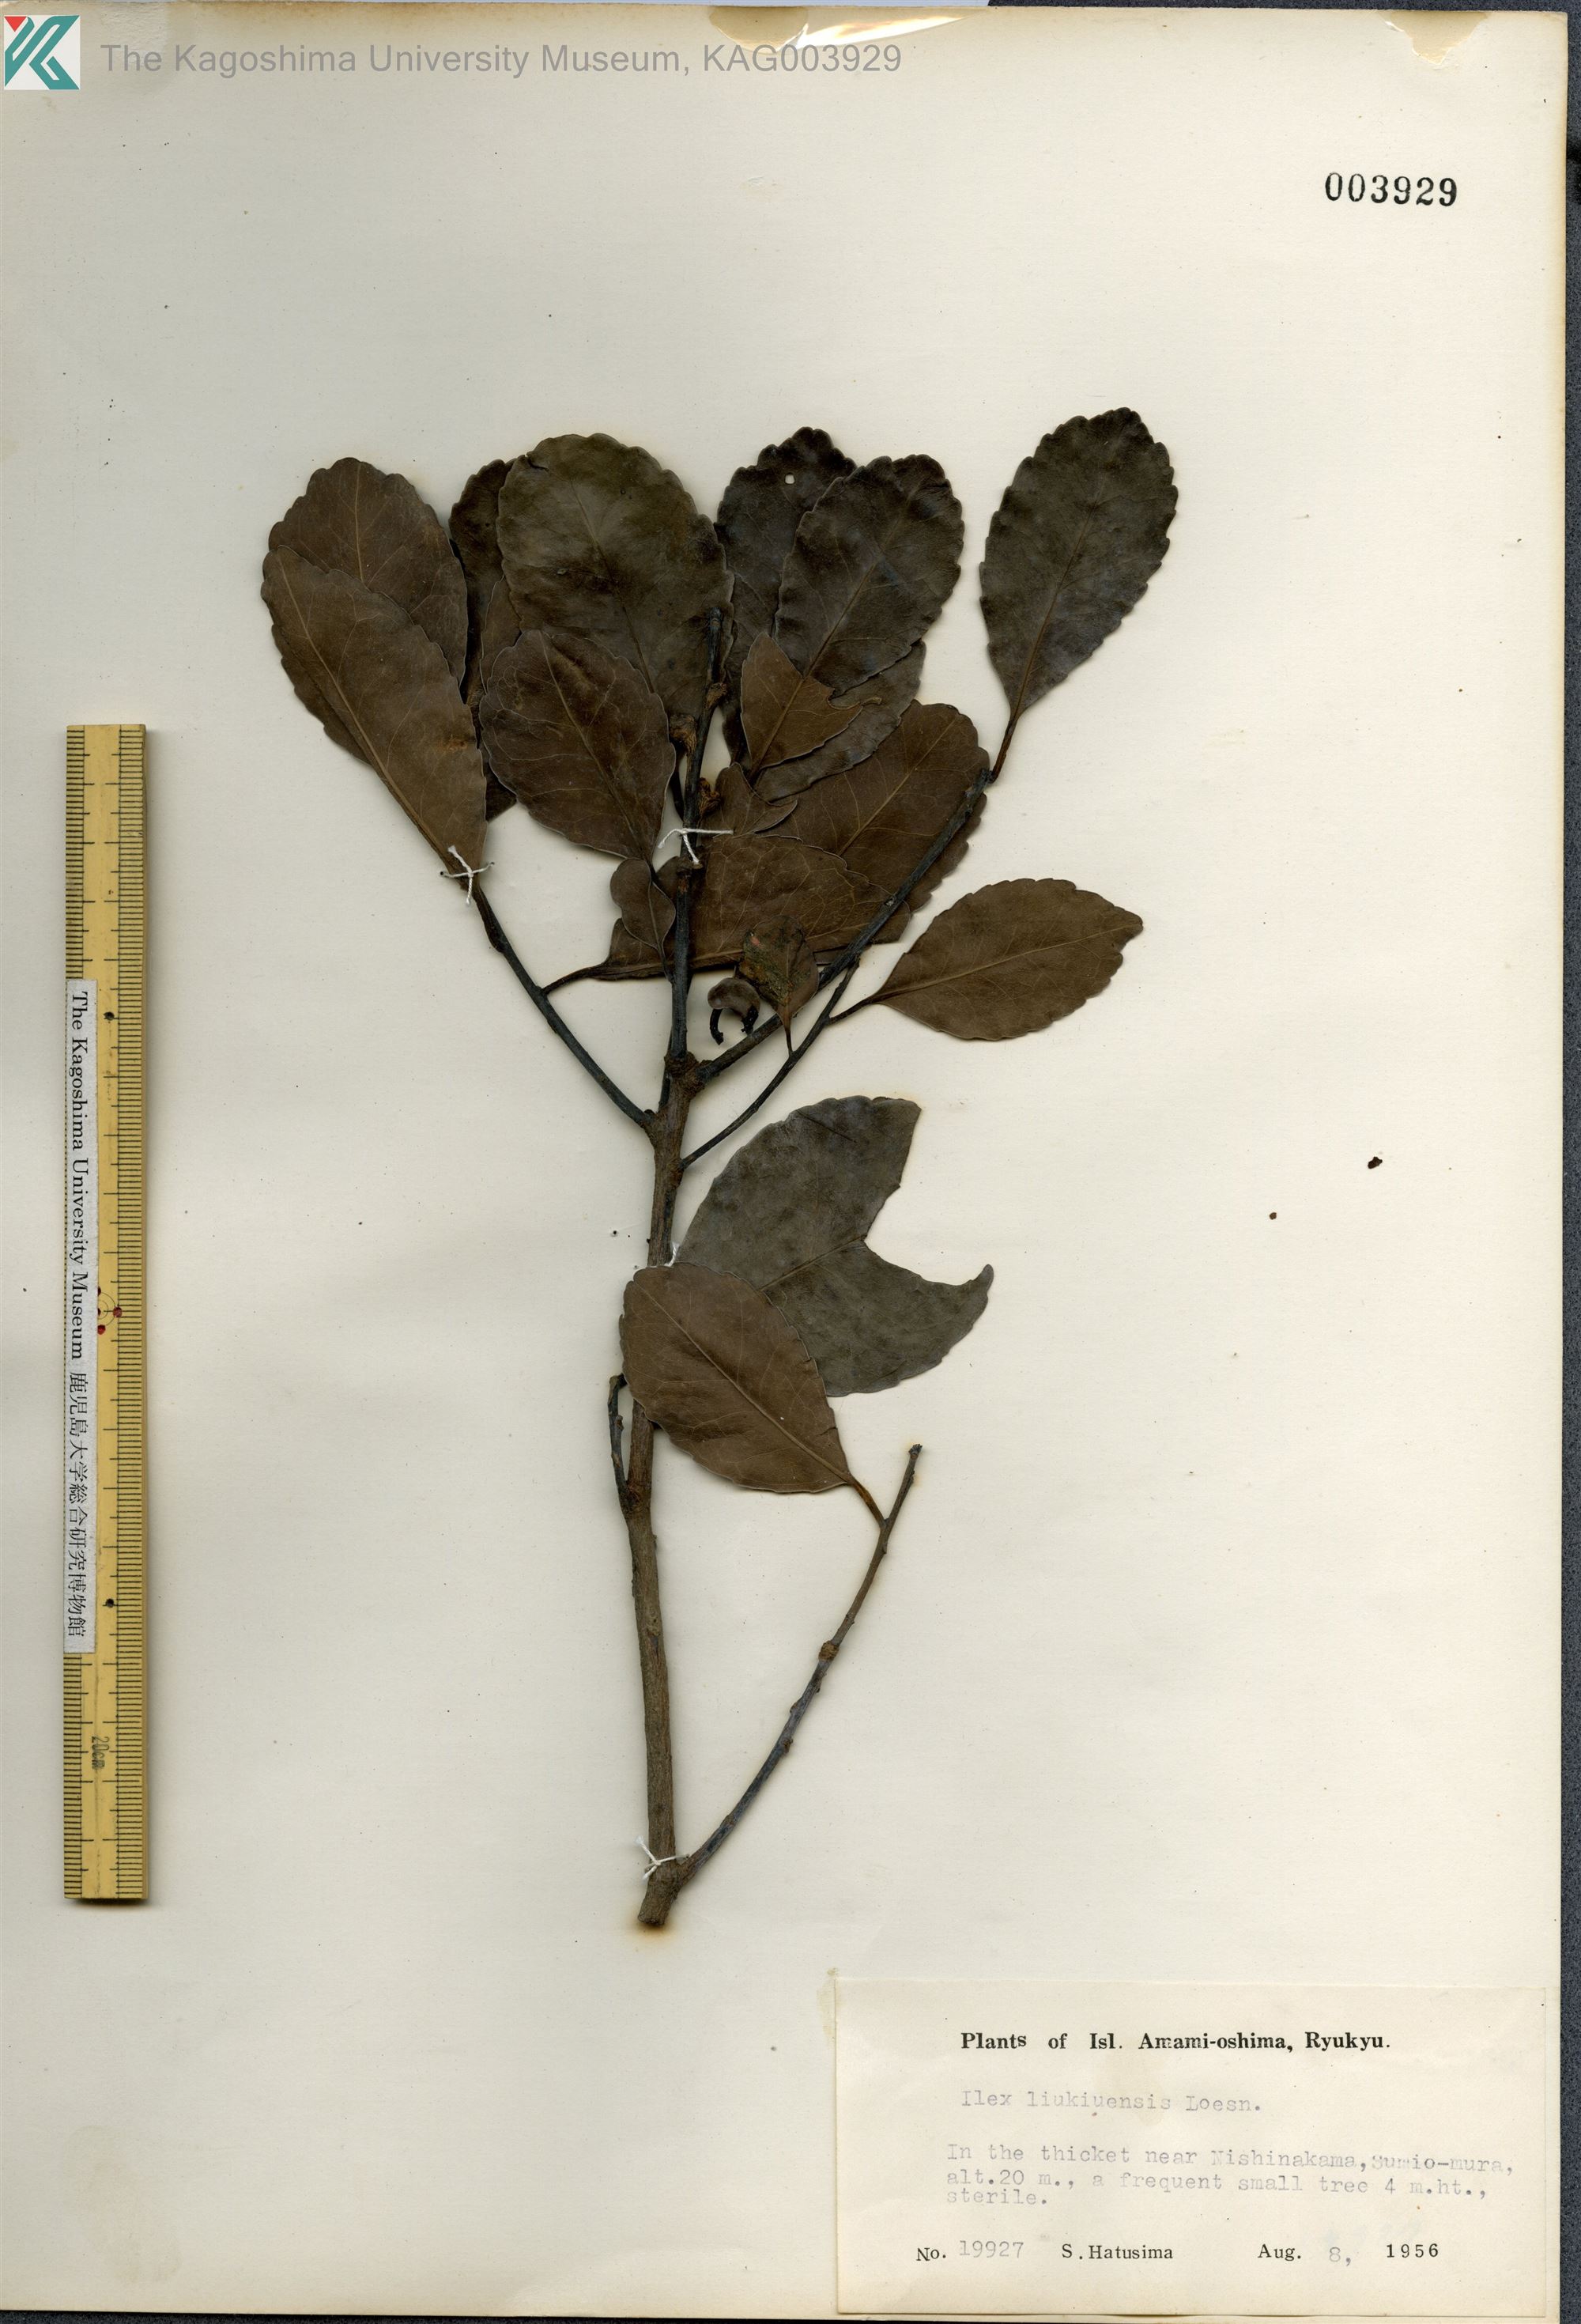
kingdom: Plantae
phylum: Tracheophyta
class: Magnoliopsida
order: Aquifoliales
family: Aquifoliaceae
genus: Ilex
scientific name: Ilex liukiuensis
